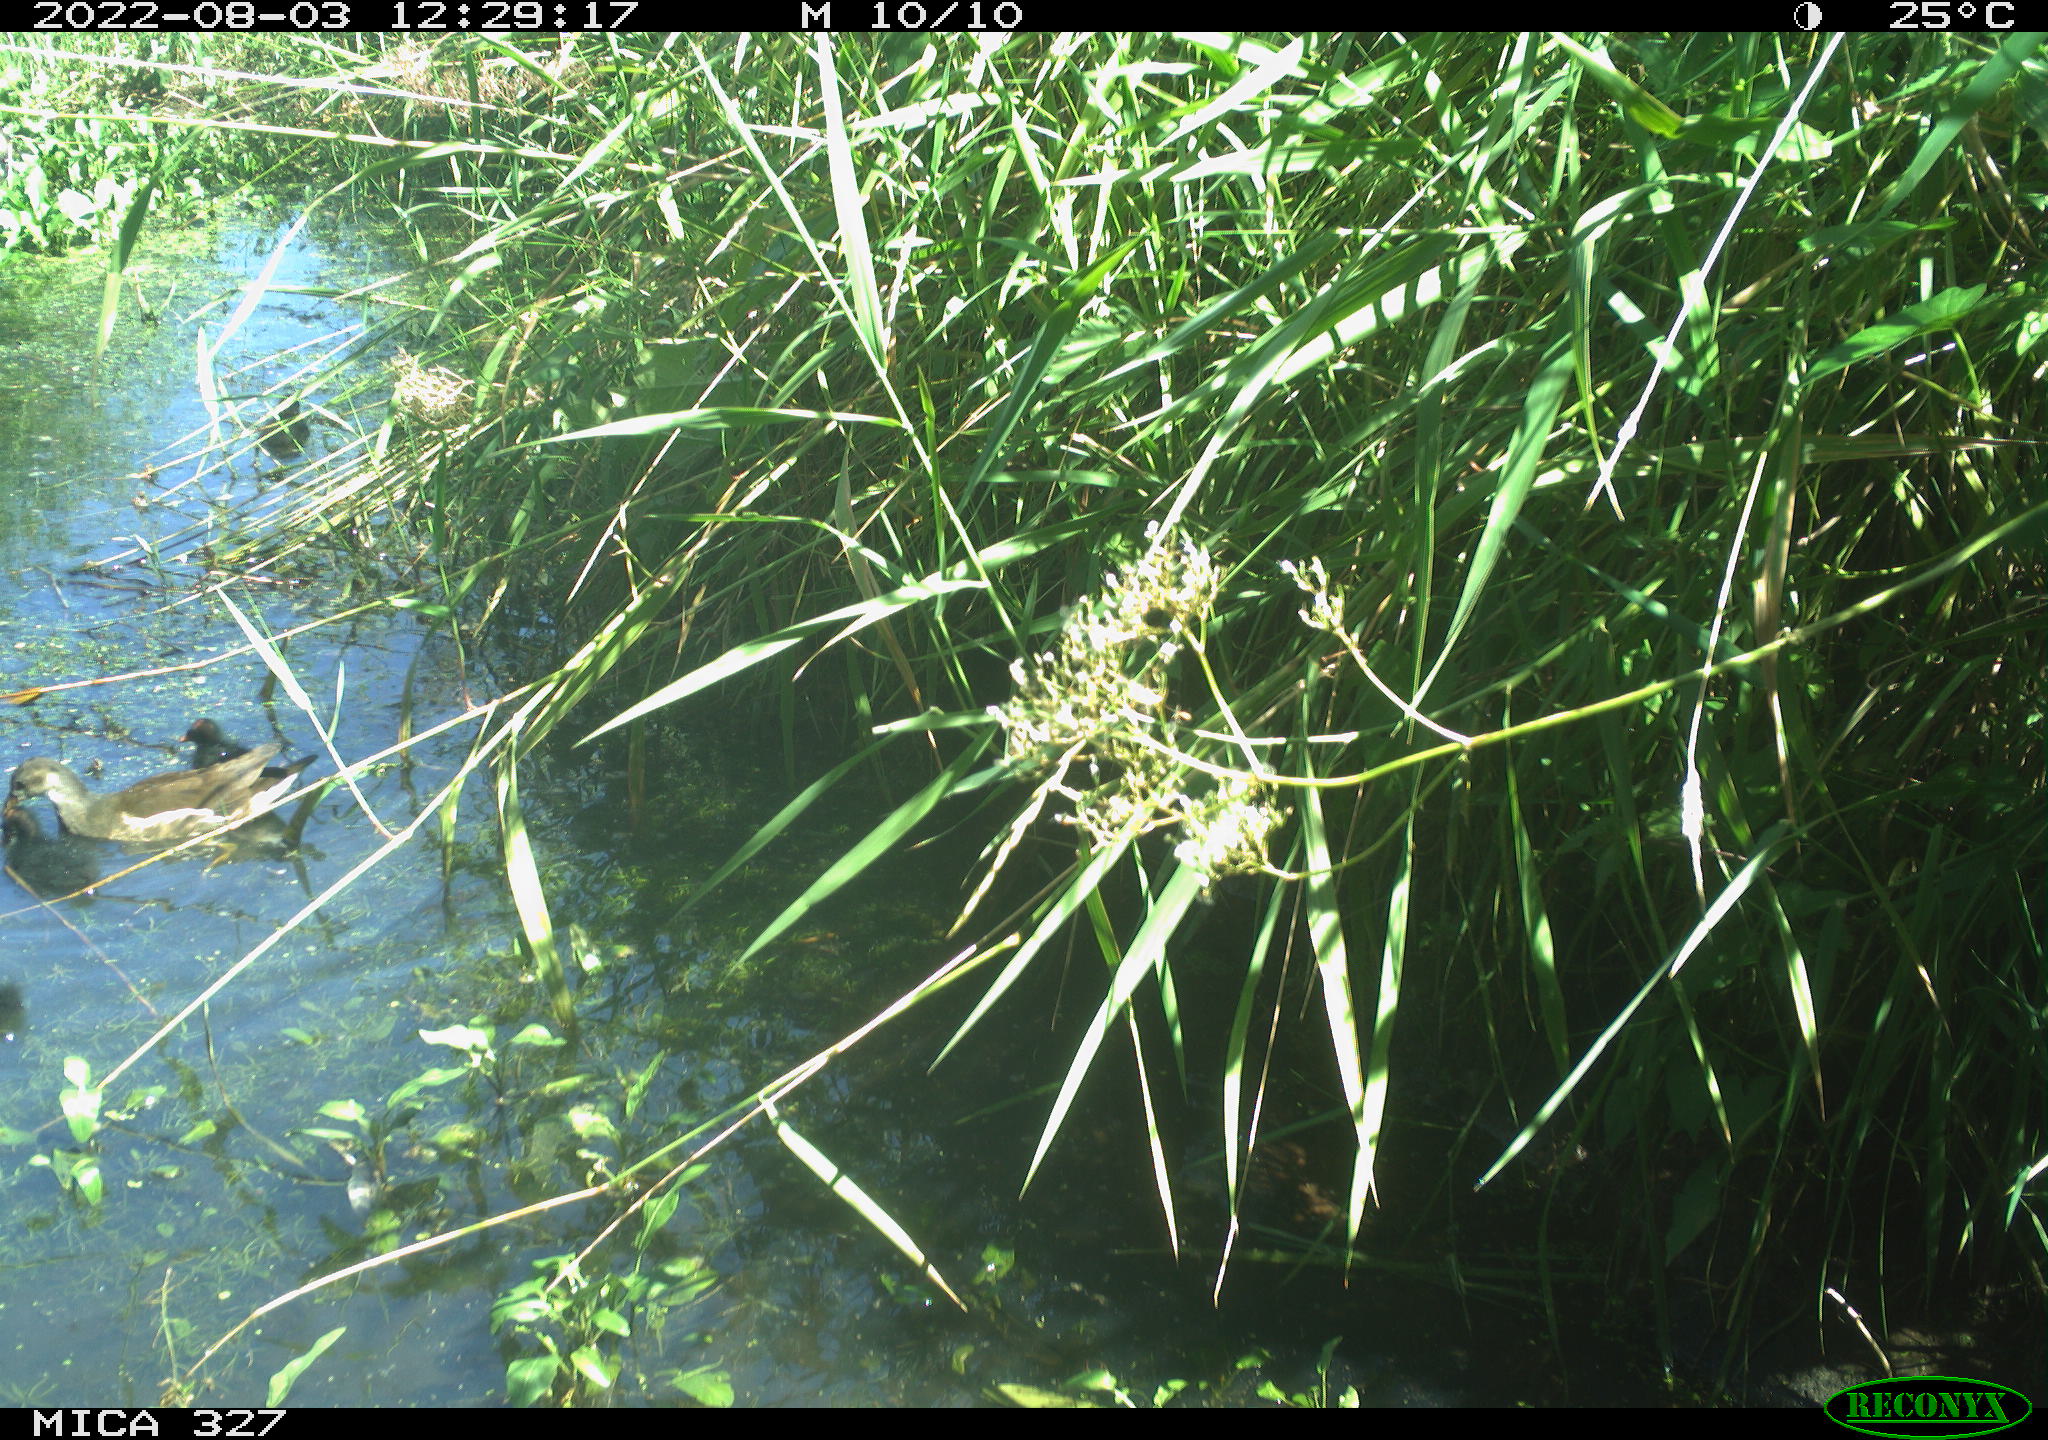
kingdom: Animalia
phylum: Chordata
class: Aves
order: Gruiformes
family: Rallidae
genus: Gallinula
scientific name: Gallinula chloropus
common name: Common moorhen
